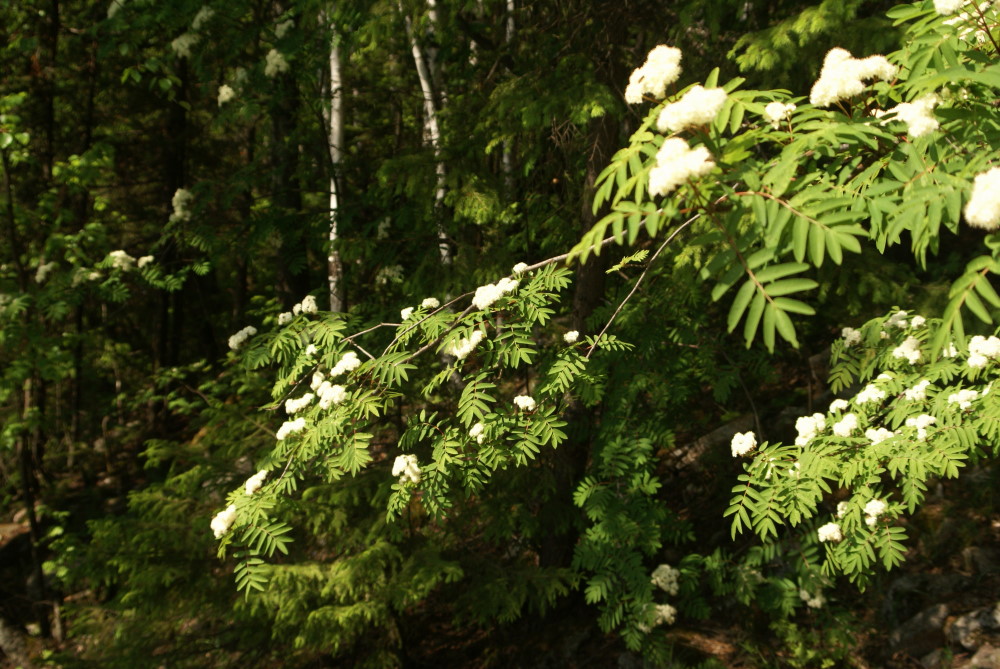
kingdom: Plantae
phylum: Tracheophyta
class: Magnoliopsida
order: Rosales
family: Rosaceae
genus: Sorbus
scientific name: Sorbus aucuparia
